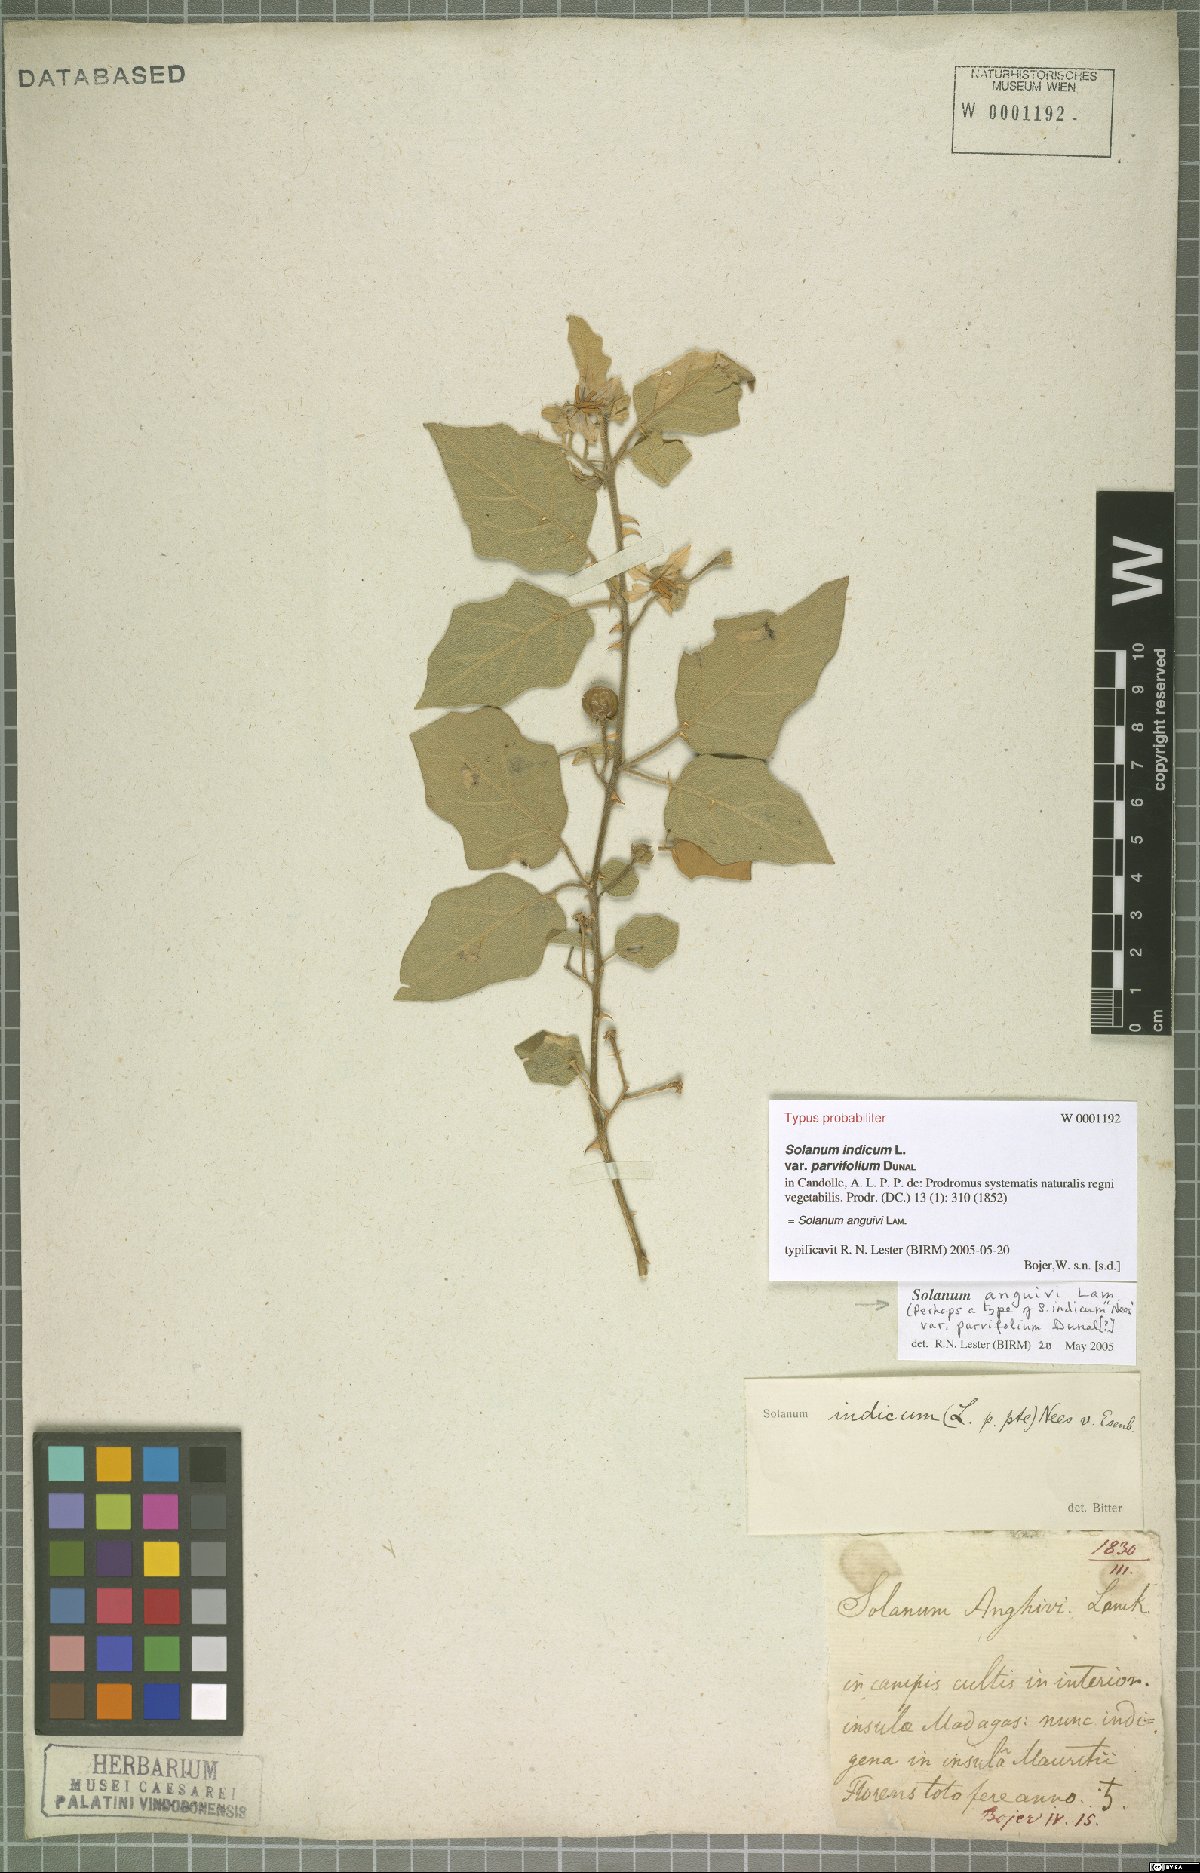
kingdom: Plantae
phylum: Tracheophyta
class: Magnoliopsida
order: Solanales
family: Solanaceae
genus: Solanum
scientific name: Solanum anguivi
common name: Forest bitterberry
